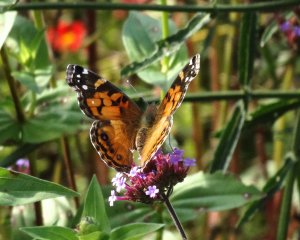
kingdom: Animalia
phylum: Arthropoda
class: Insecta
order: Lepidoptera
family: Nymphalidae
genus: Vanessa
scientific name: Vanessa virginiensis
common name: American Lady
